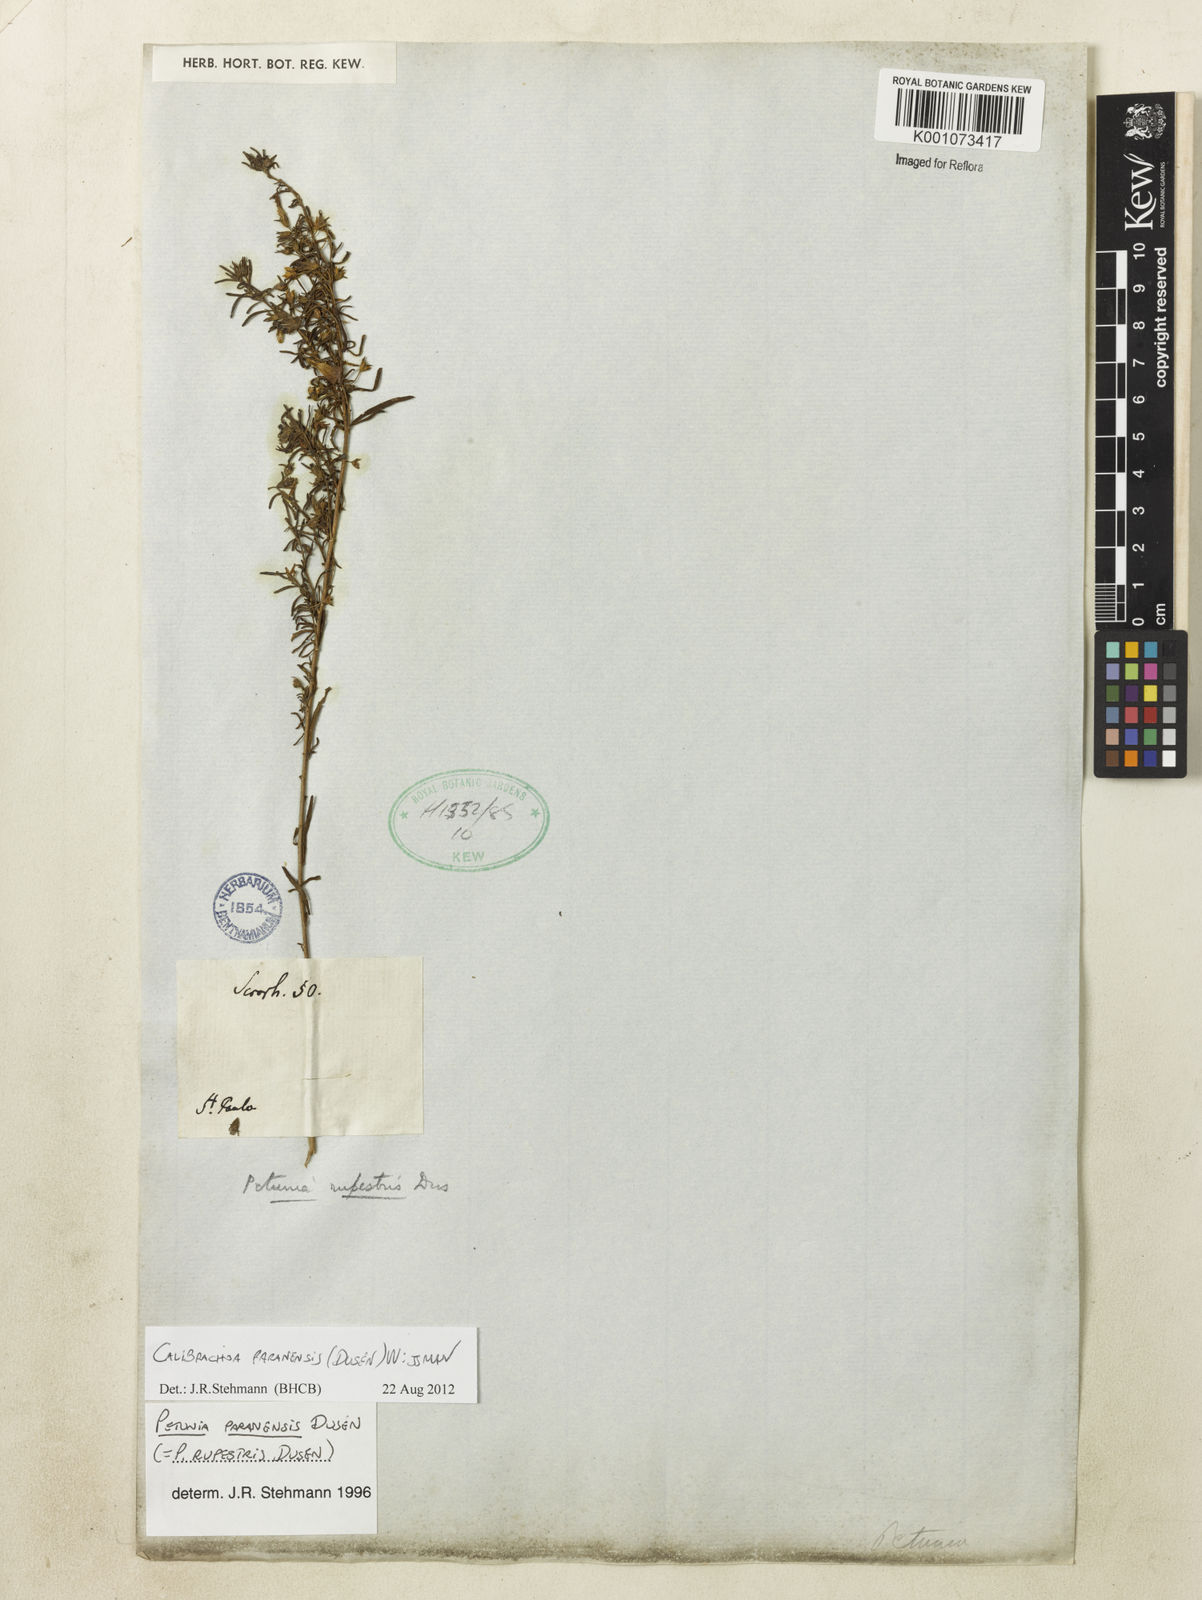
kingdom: Plantae
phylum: Tracheophyta
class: Magnoliopsida
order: Solanales
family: Solanaceae
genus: Calibrachoa
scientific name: Calibrachoa
